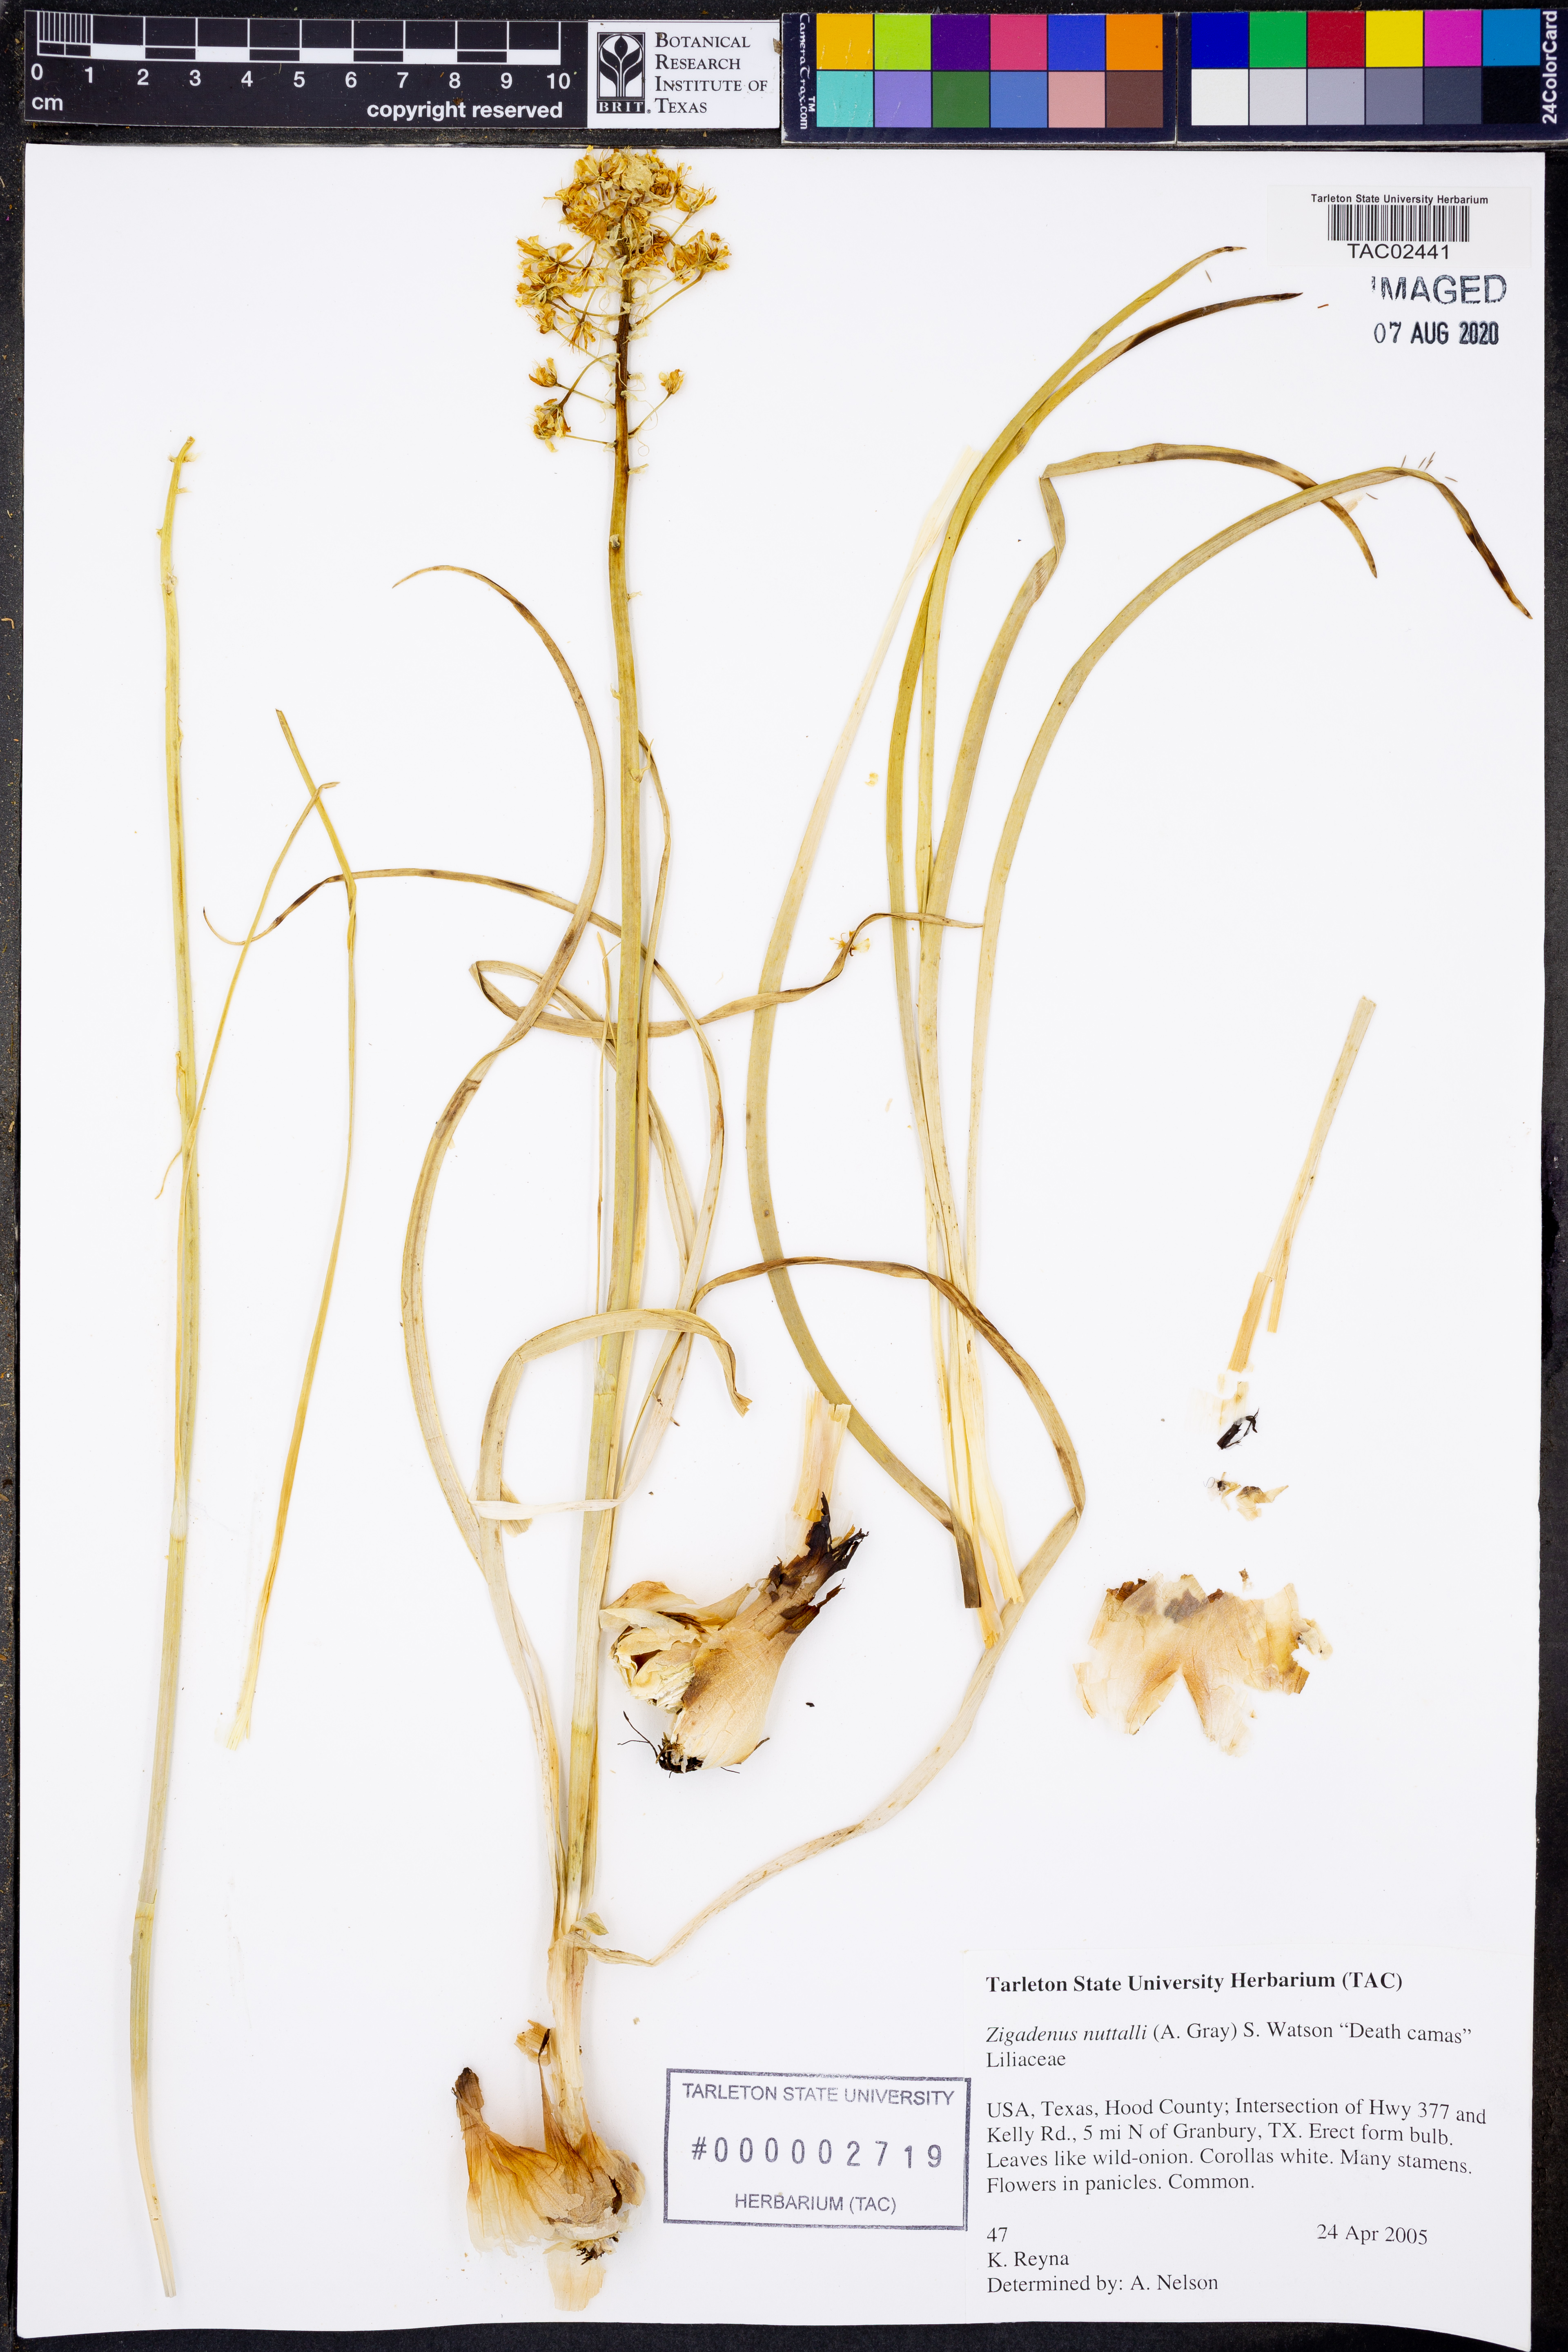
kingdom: Plantae
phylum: Tracheophyta
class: Liliopsida
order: Liliales
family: Melanthiaceae
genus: Toxicoscordion
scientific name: Toxicoscordion nuttallii
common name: Poison sego
